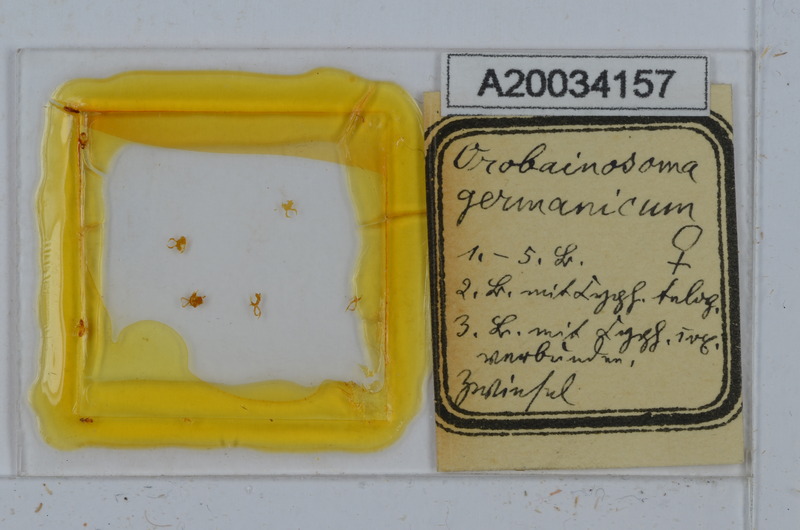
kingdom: Animalia
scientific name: Animalia
